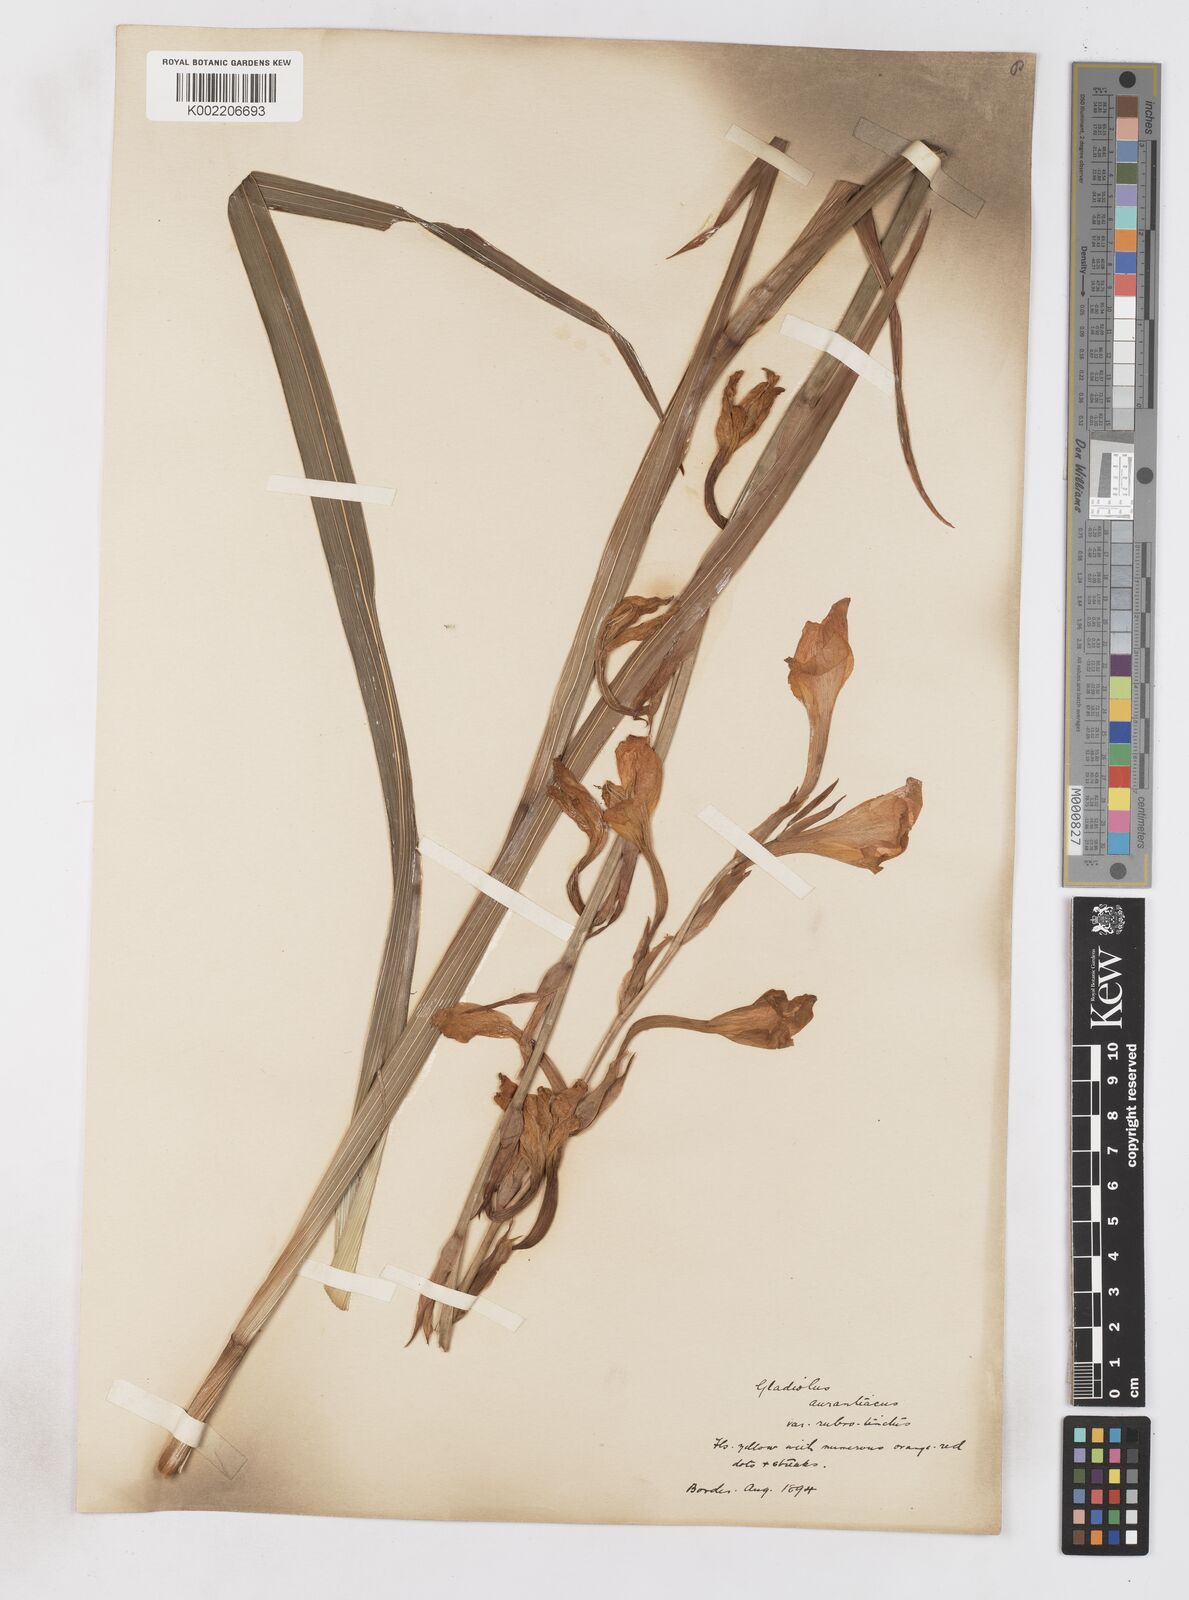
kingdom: Plantae
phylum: Tracheophyta
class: Liliopsida
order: Asparagales
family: Iridaceae
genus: Gladiolus
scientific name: Gladiolus aurantiacus
